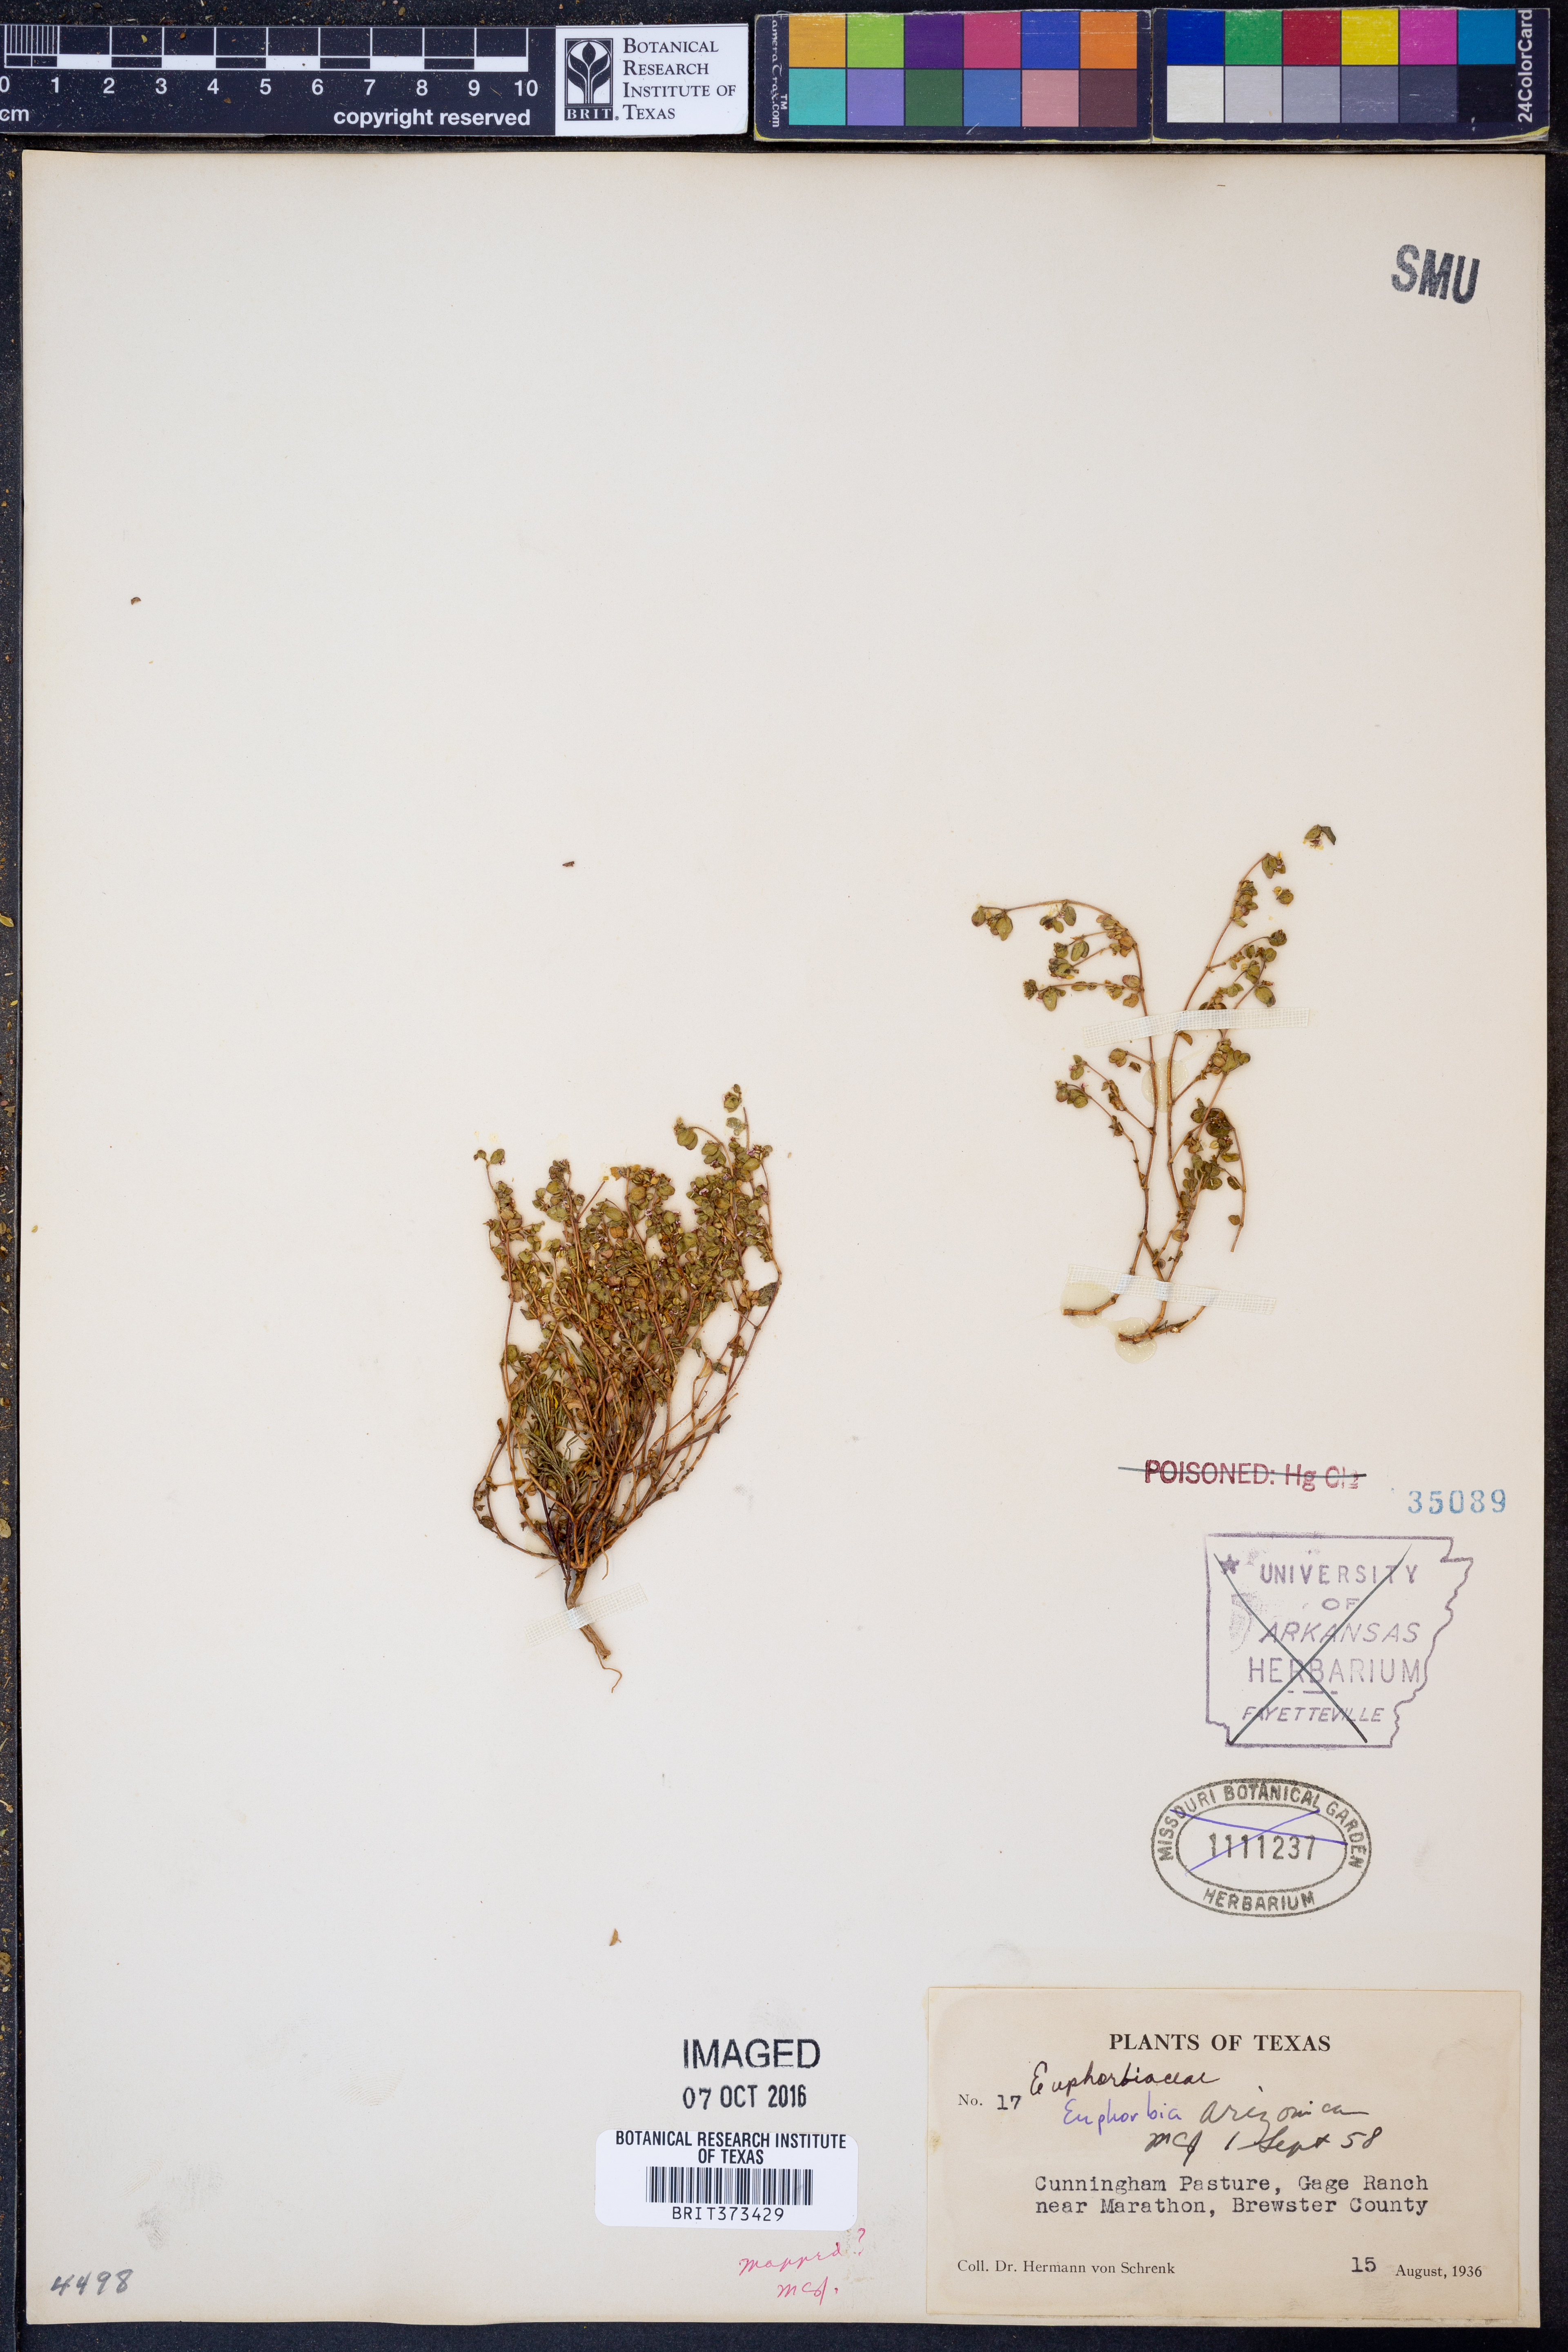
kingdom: Plantae
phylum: Tracheophyta
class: Magnoliopsida
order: Malpighiales
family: Euphorbiaceae
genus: Euphorbia
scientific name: Euphorbia arizonica
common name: Arizona spurge
